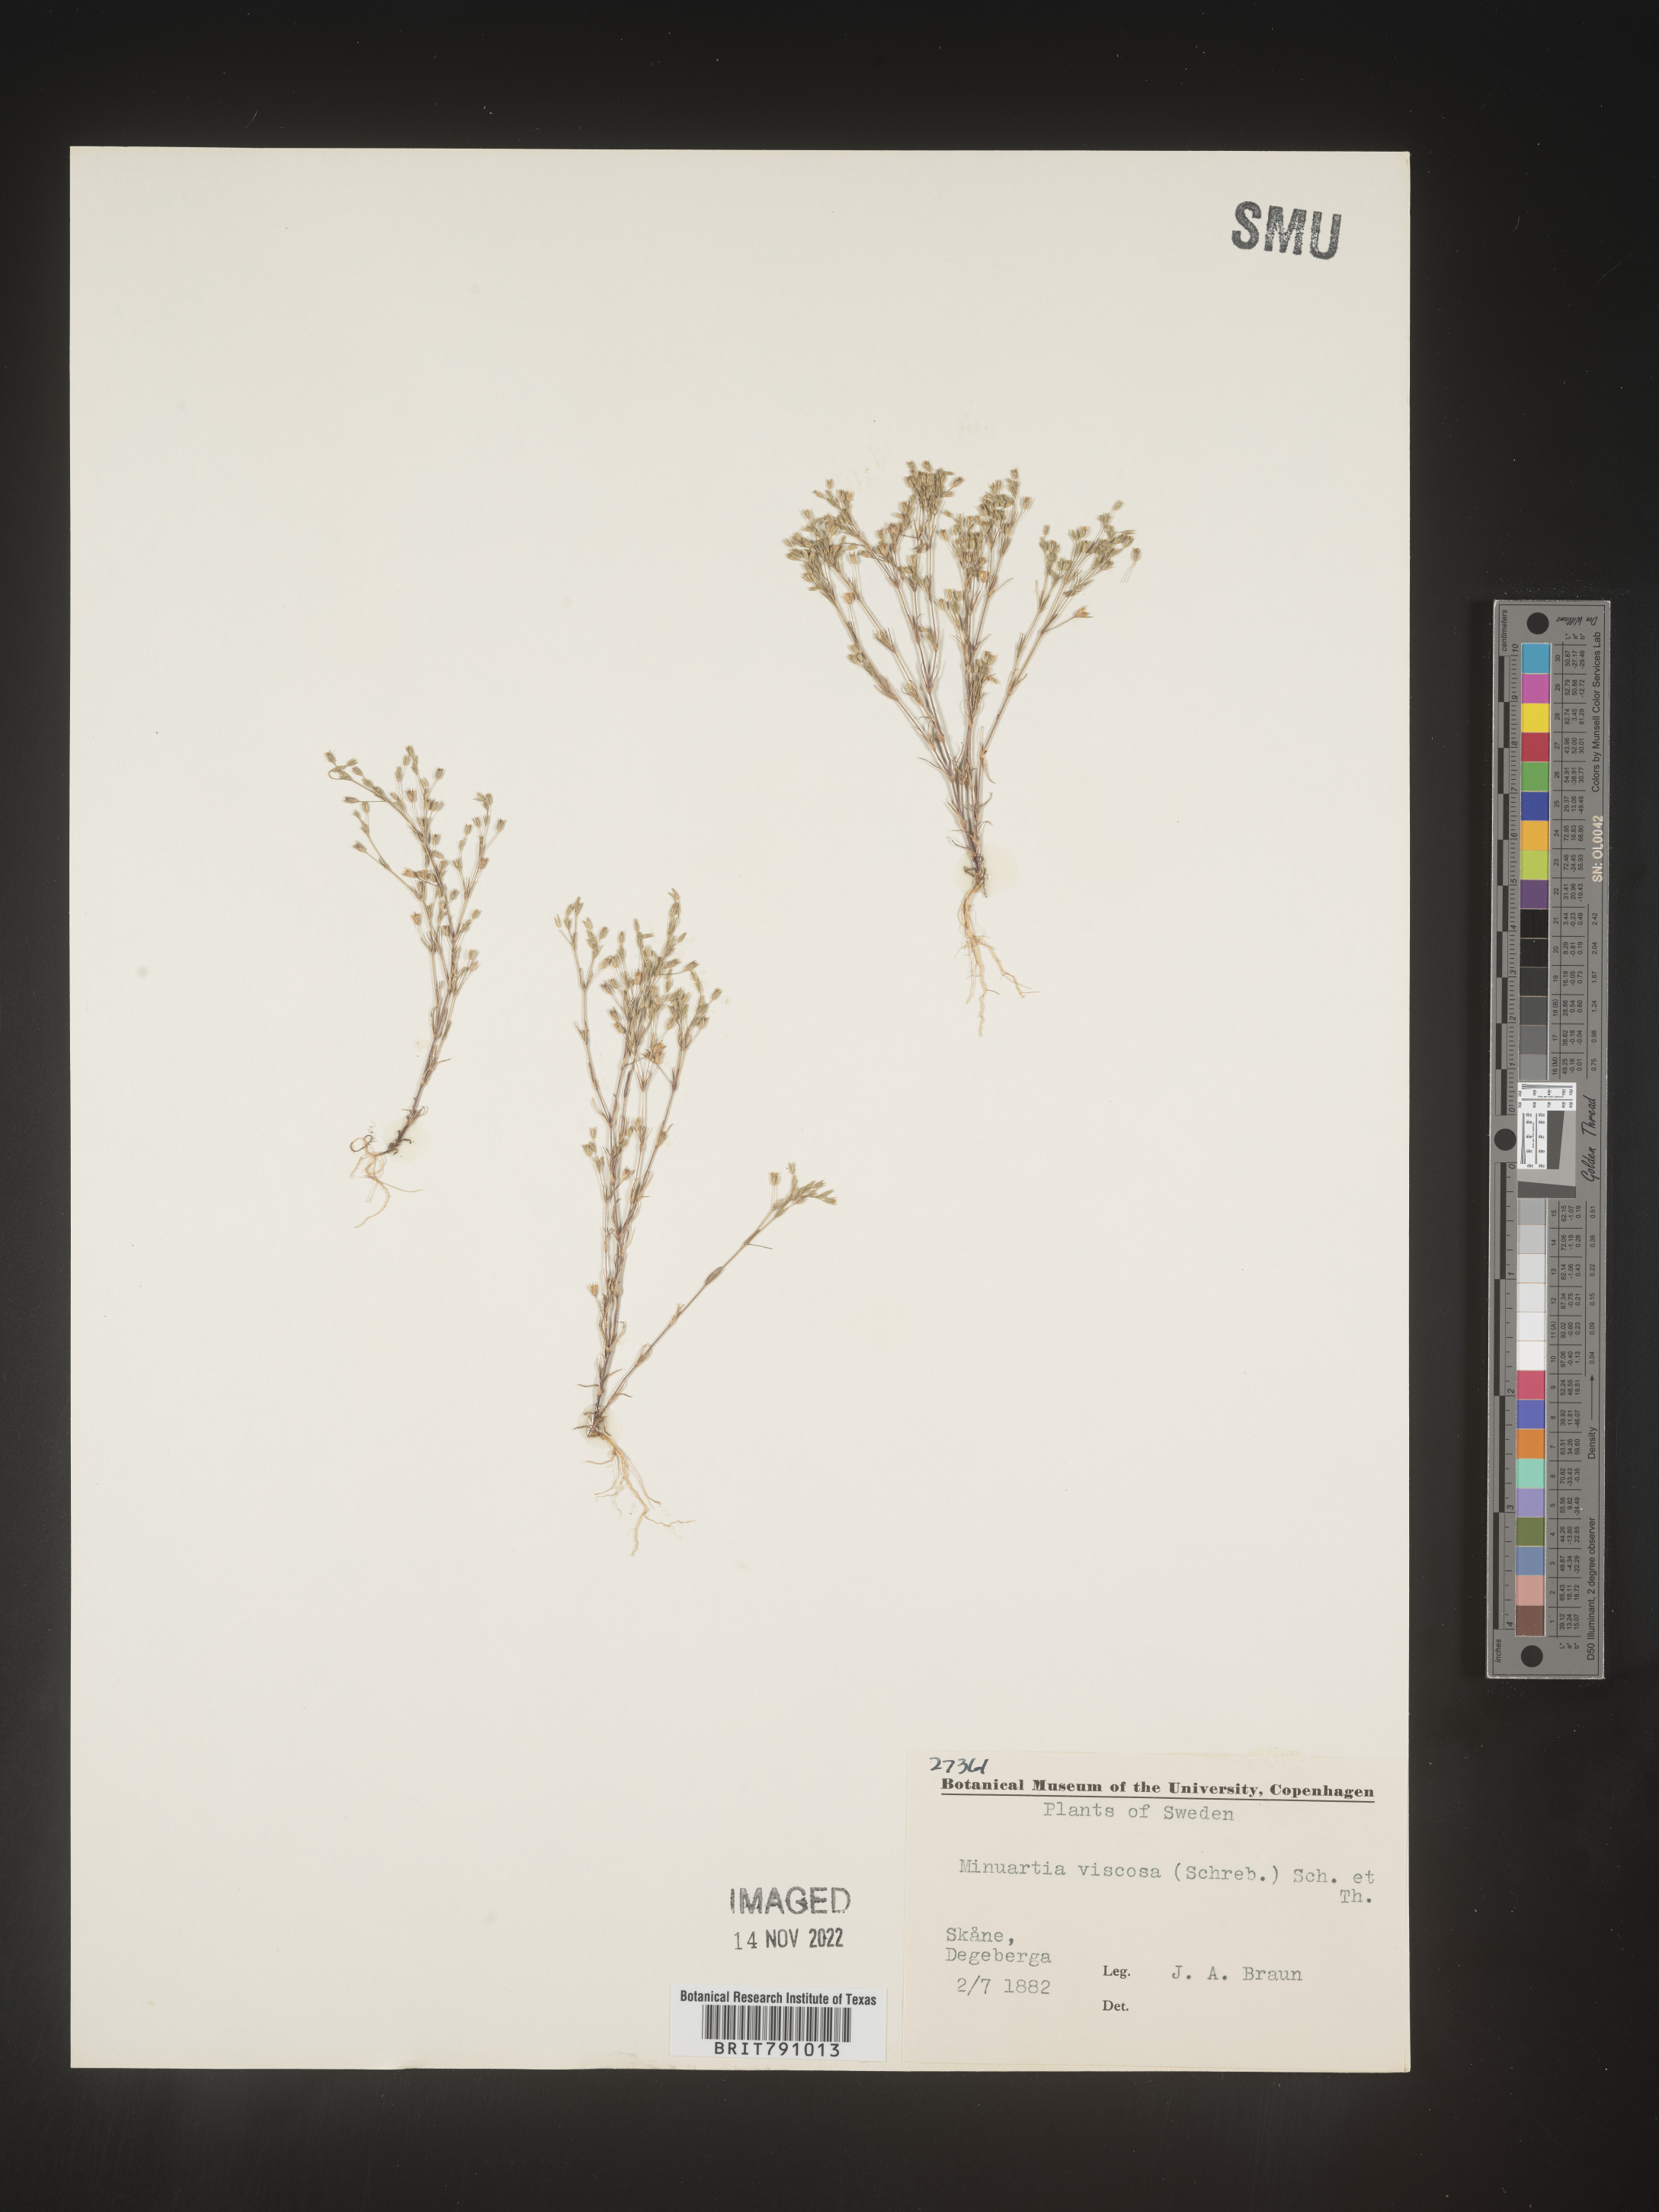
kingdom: Plantae
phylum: Tracheophyta
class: Magnoliopsida
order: Caryophyllales
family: Caryophyllaceae
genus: Minuartia
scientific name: Minuartia
